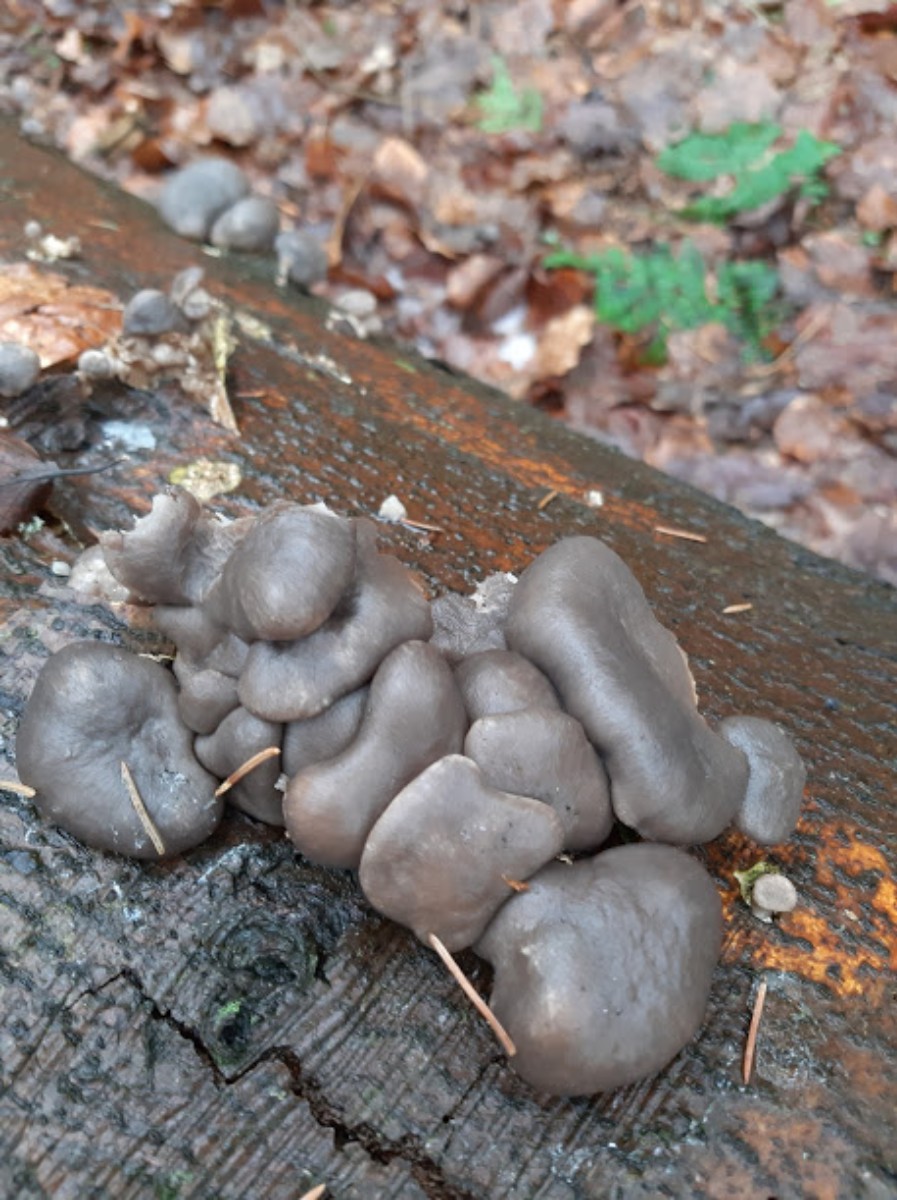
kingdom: Fungi
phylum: Basidiomycota
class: Agaricomycetes
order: Agaricales
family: Pleurotaceae
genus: Pleurotus
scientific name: Pleurotus ostreatus
